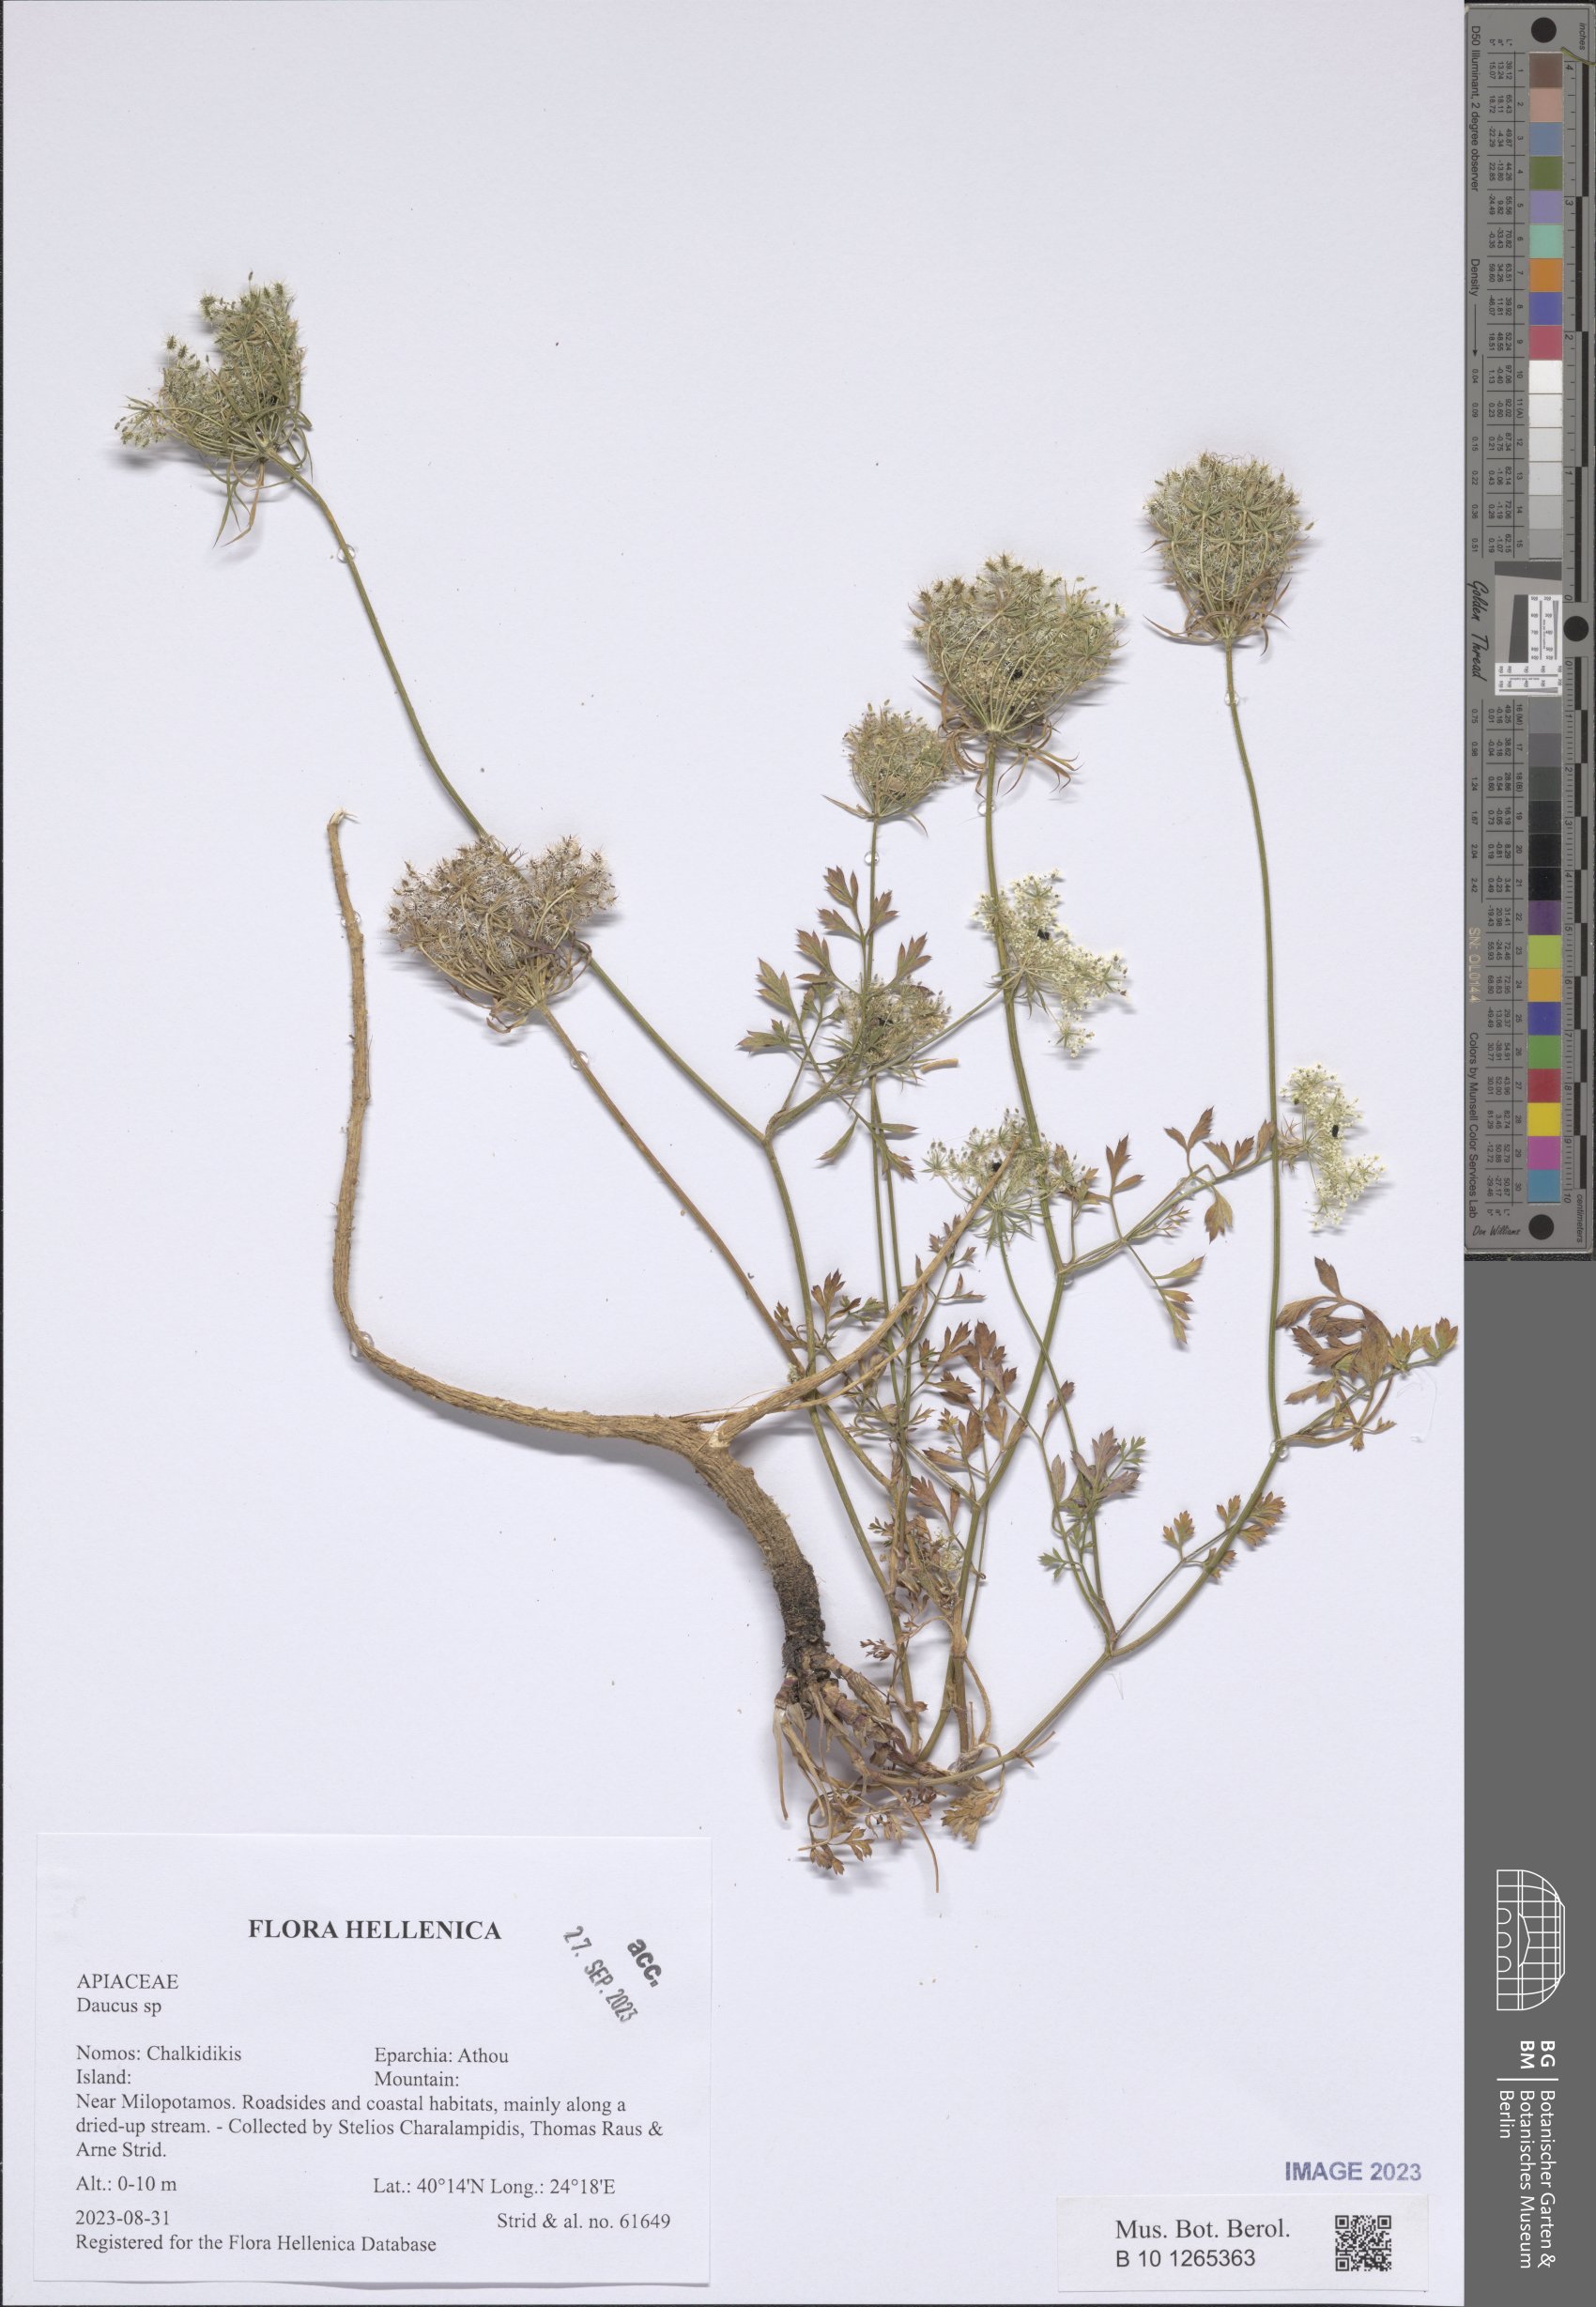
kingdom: Plantae
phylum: Tracheophyta
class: Magnoliopsida
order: Apiales
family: Apiaceae
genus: Daucus
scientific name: Daucus
